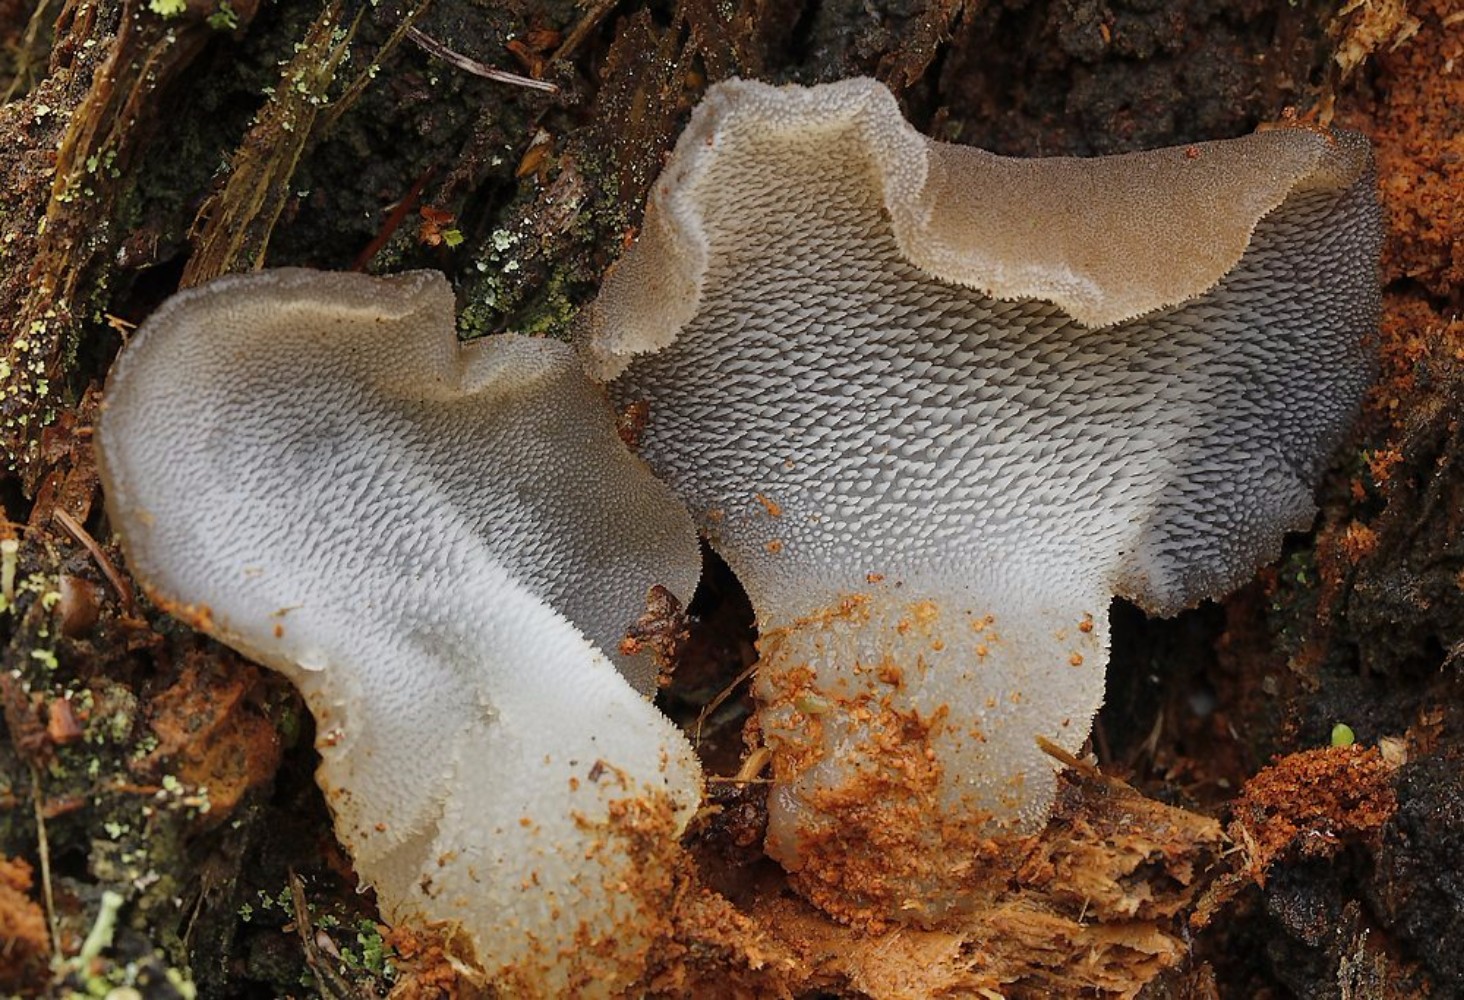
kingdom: Fungi
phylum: Basidiomycota
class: Agaricomycetes
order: Auriculariales
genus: Pseudohydnum
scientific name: Pseudohydnum gelatinosum
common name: bævretand
